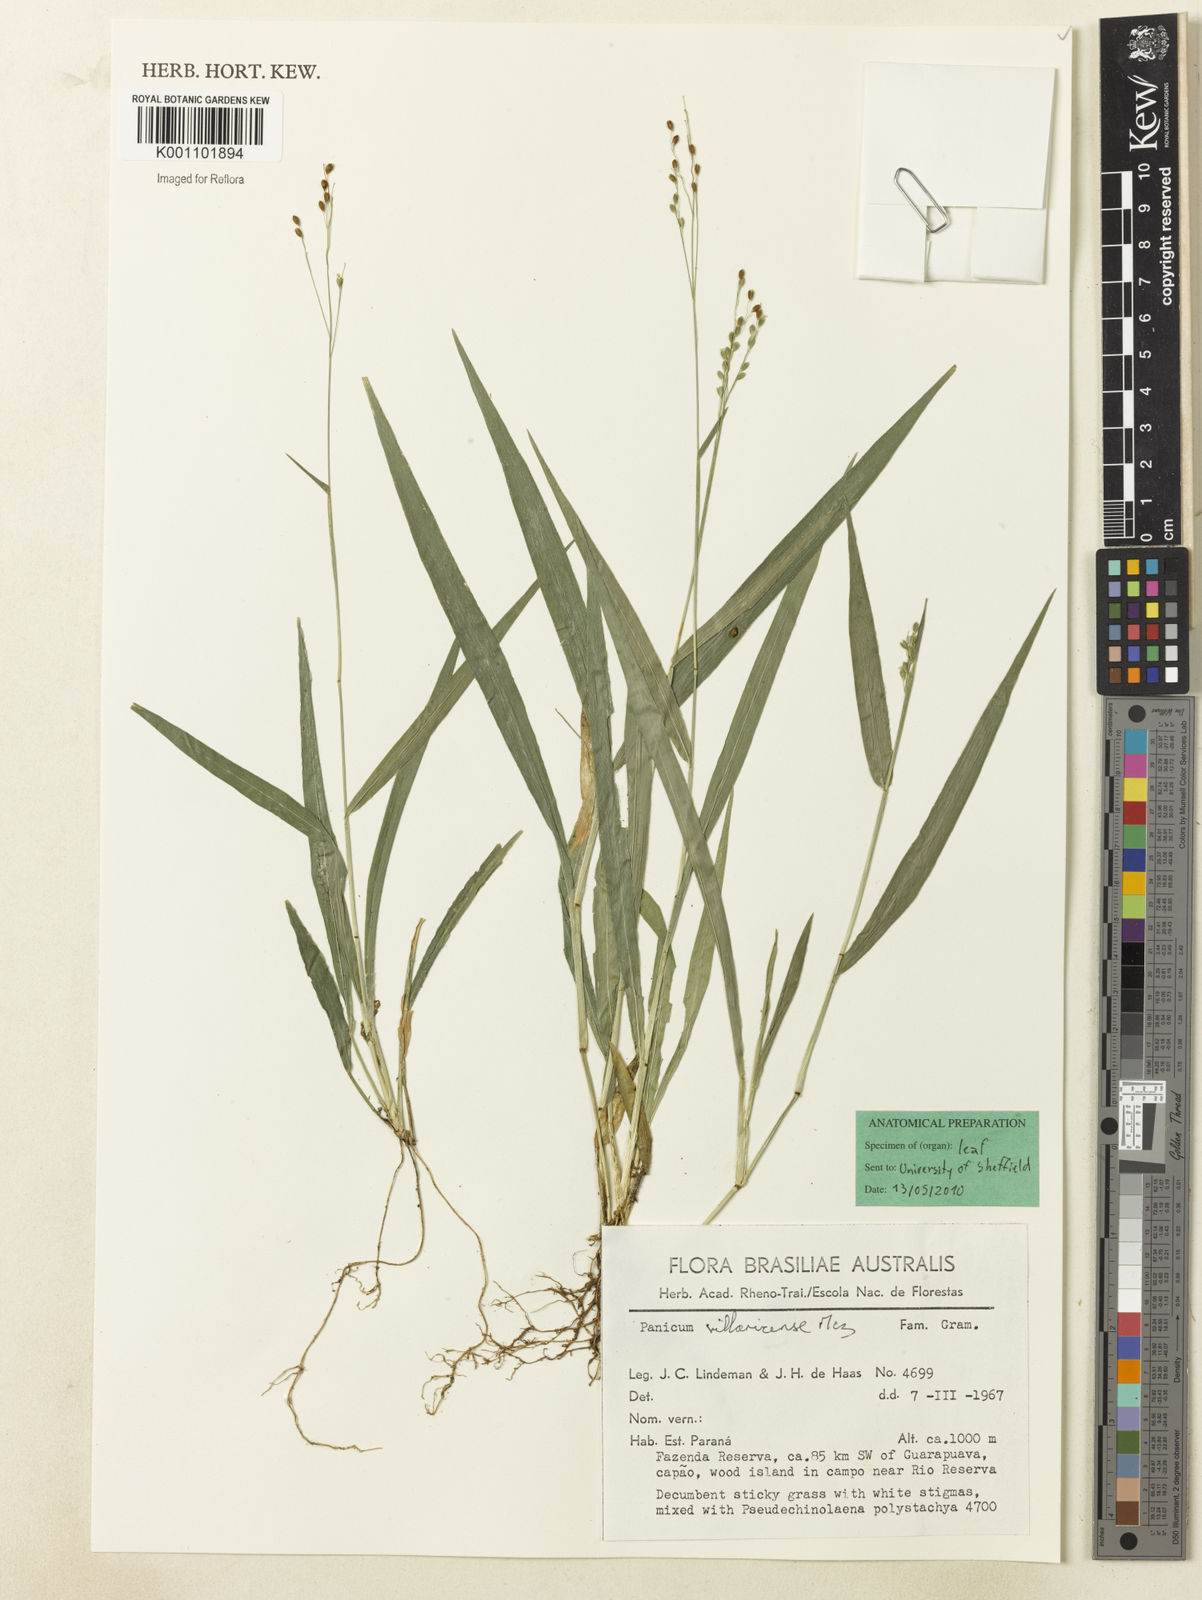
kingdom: Plantae
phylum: Tracheophyta
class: Liliopsida
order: Poales
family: Poaceae
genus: Homolepis
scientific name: Homolepis villaricensis
